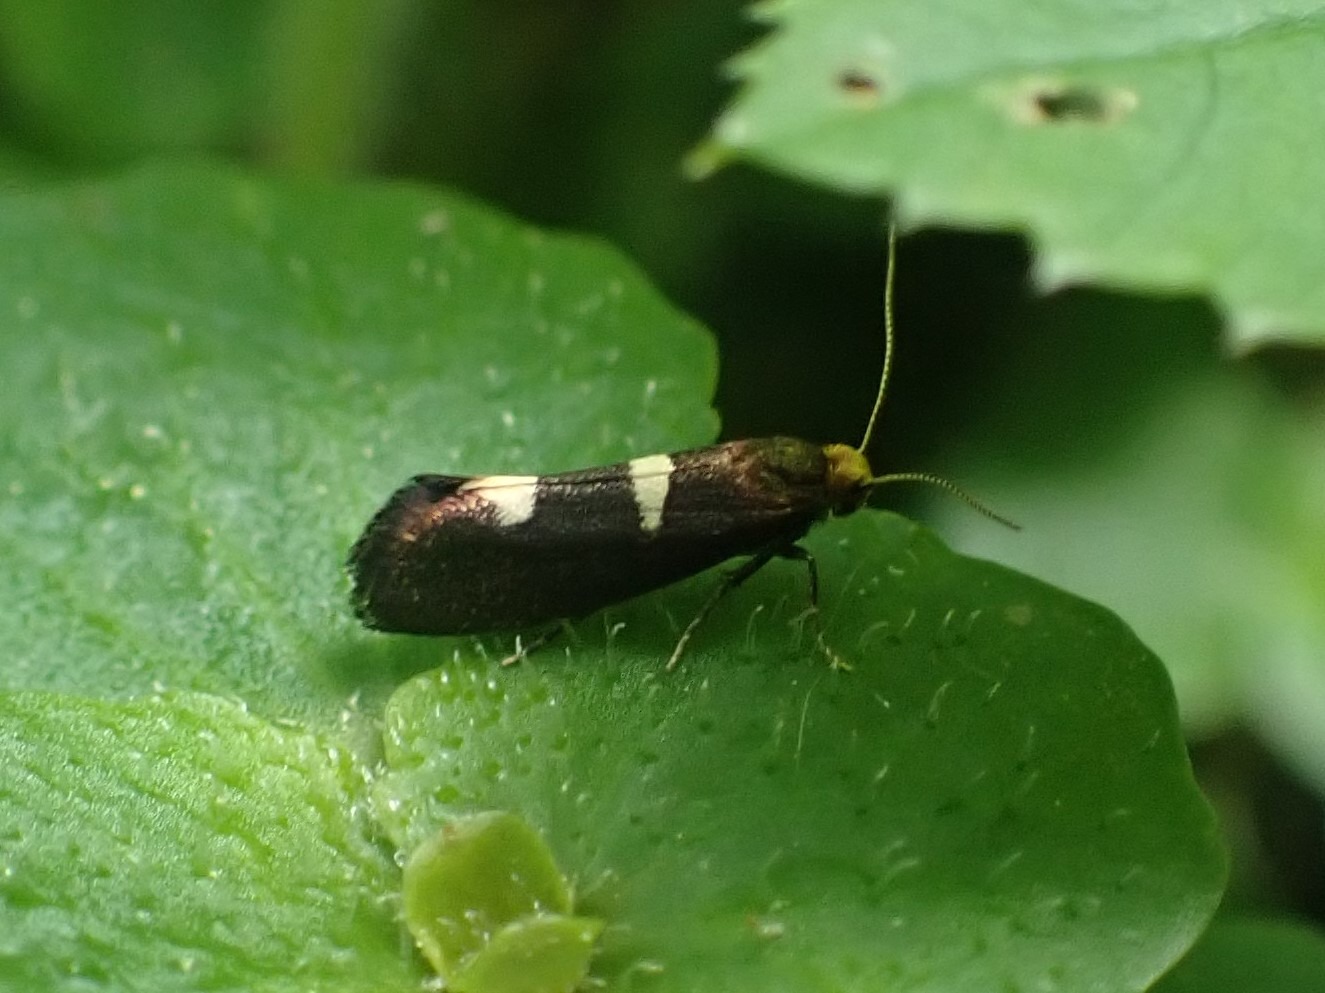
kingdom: Animalia
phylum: Arthropoda
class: Insecta
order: Lepidoptera
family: Incurvariidae
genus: Incurvaria
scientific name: Incurvaria masculella
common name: Mørkt nøjsomt møl
